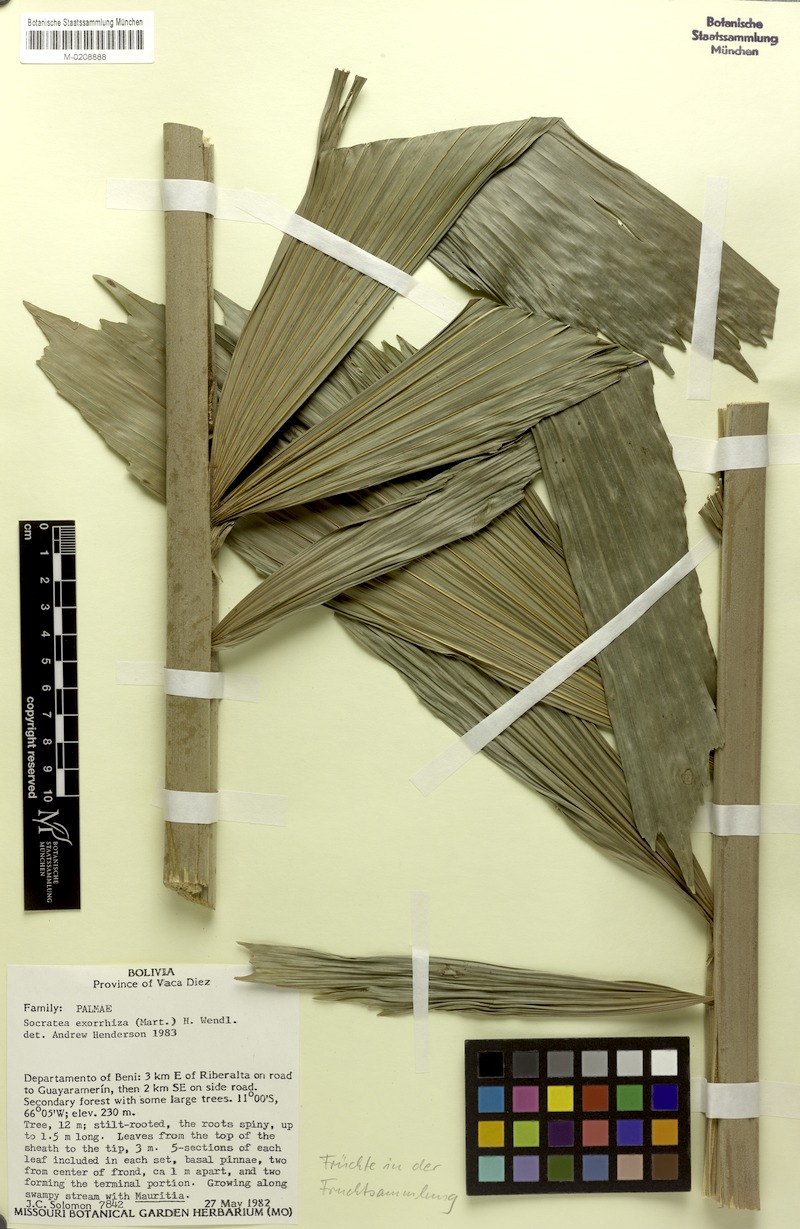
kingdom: Plantae
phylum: Tracheophyta
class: Liliopsida
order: Arecales
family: Arecaceae
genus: Socratea
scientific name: Socratea exorrhiza
